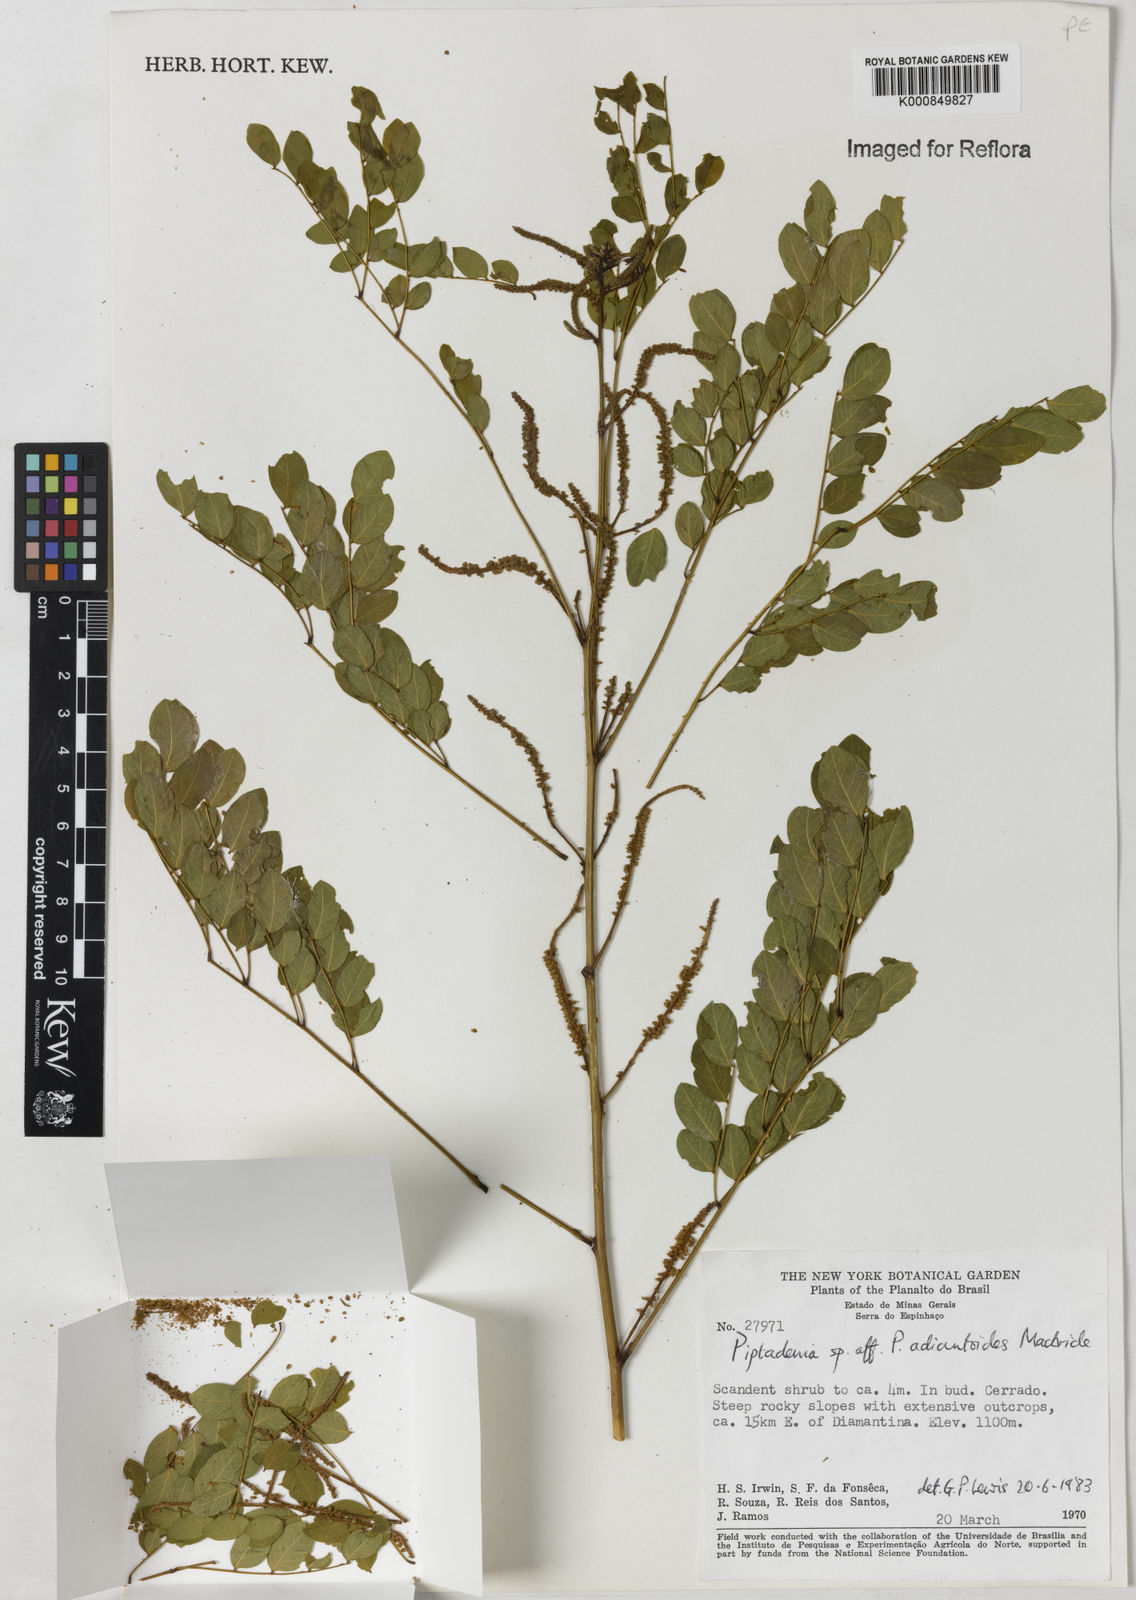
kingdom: Plantae
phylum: Tracheophyta
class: Magnoliopsida
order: Fabales
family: Fabaceae
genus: Piptadenia
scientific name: Piptadenia adiantoides
